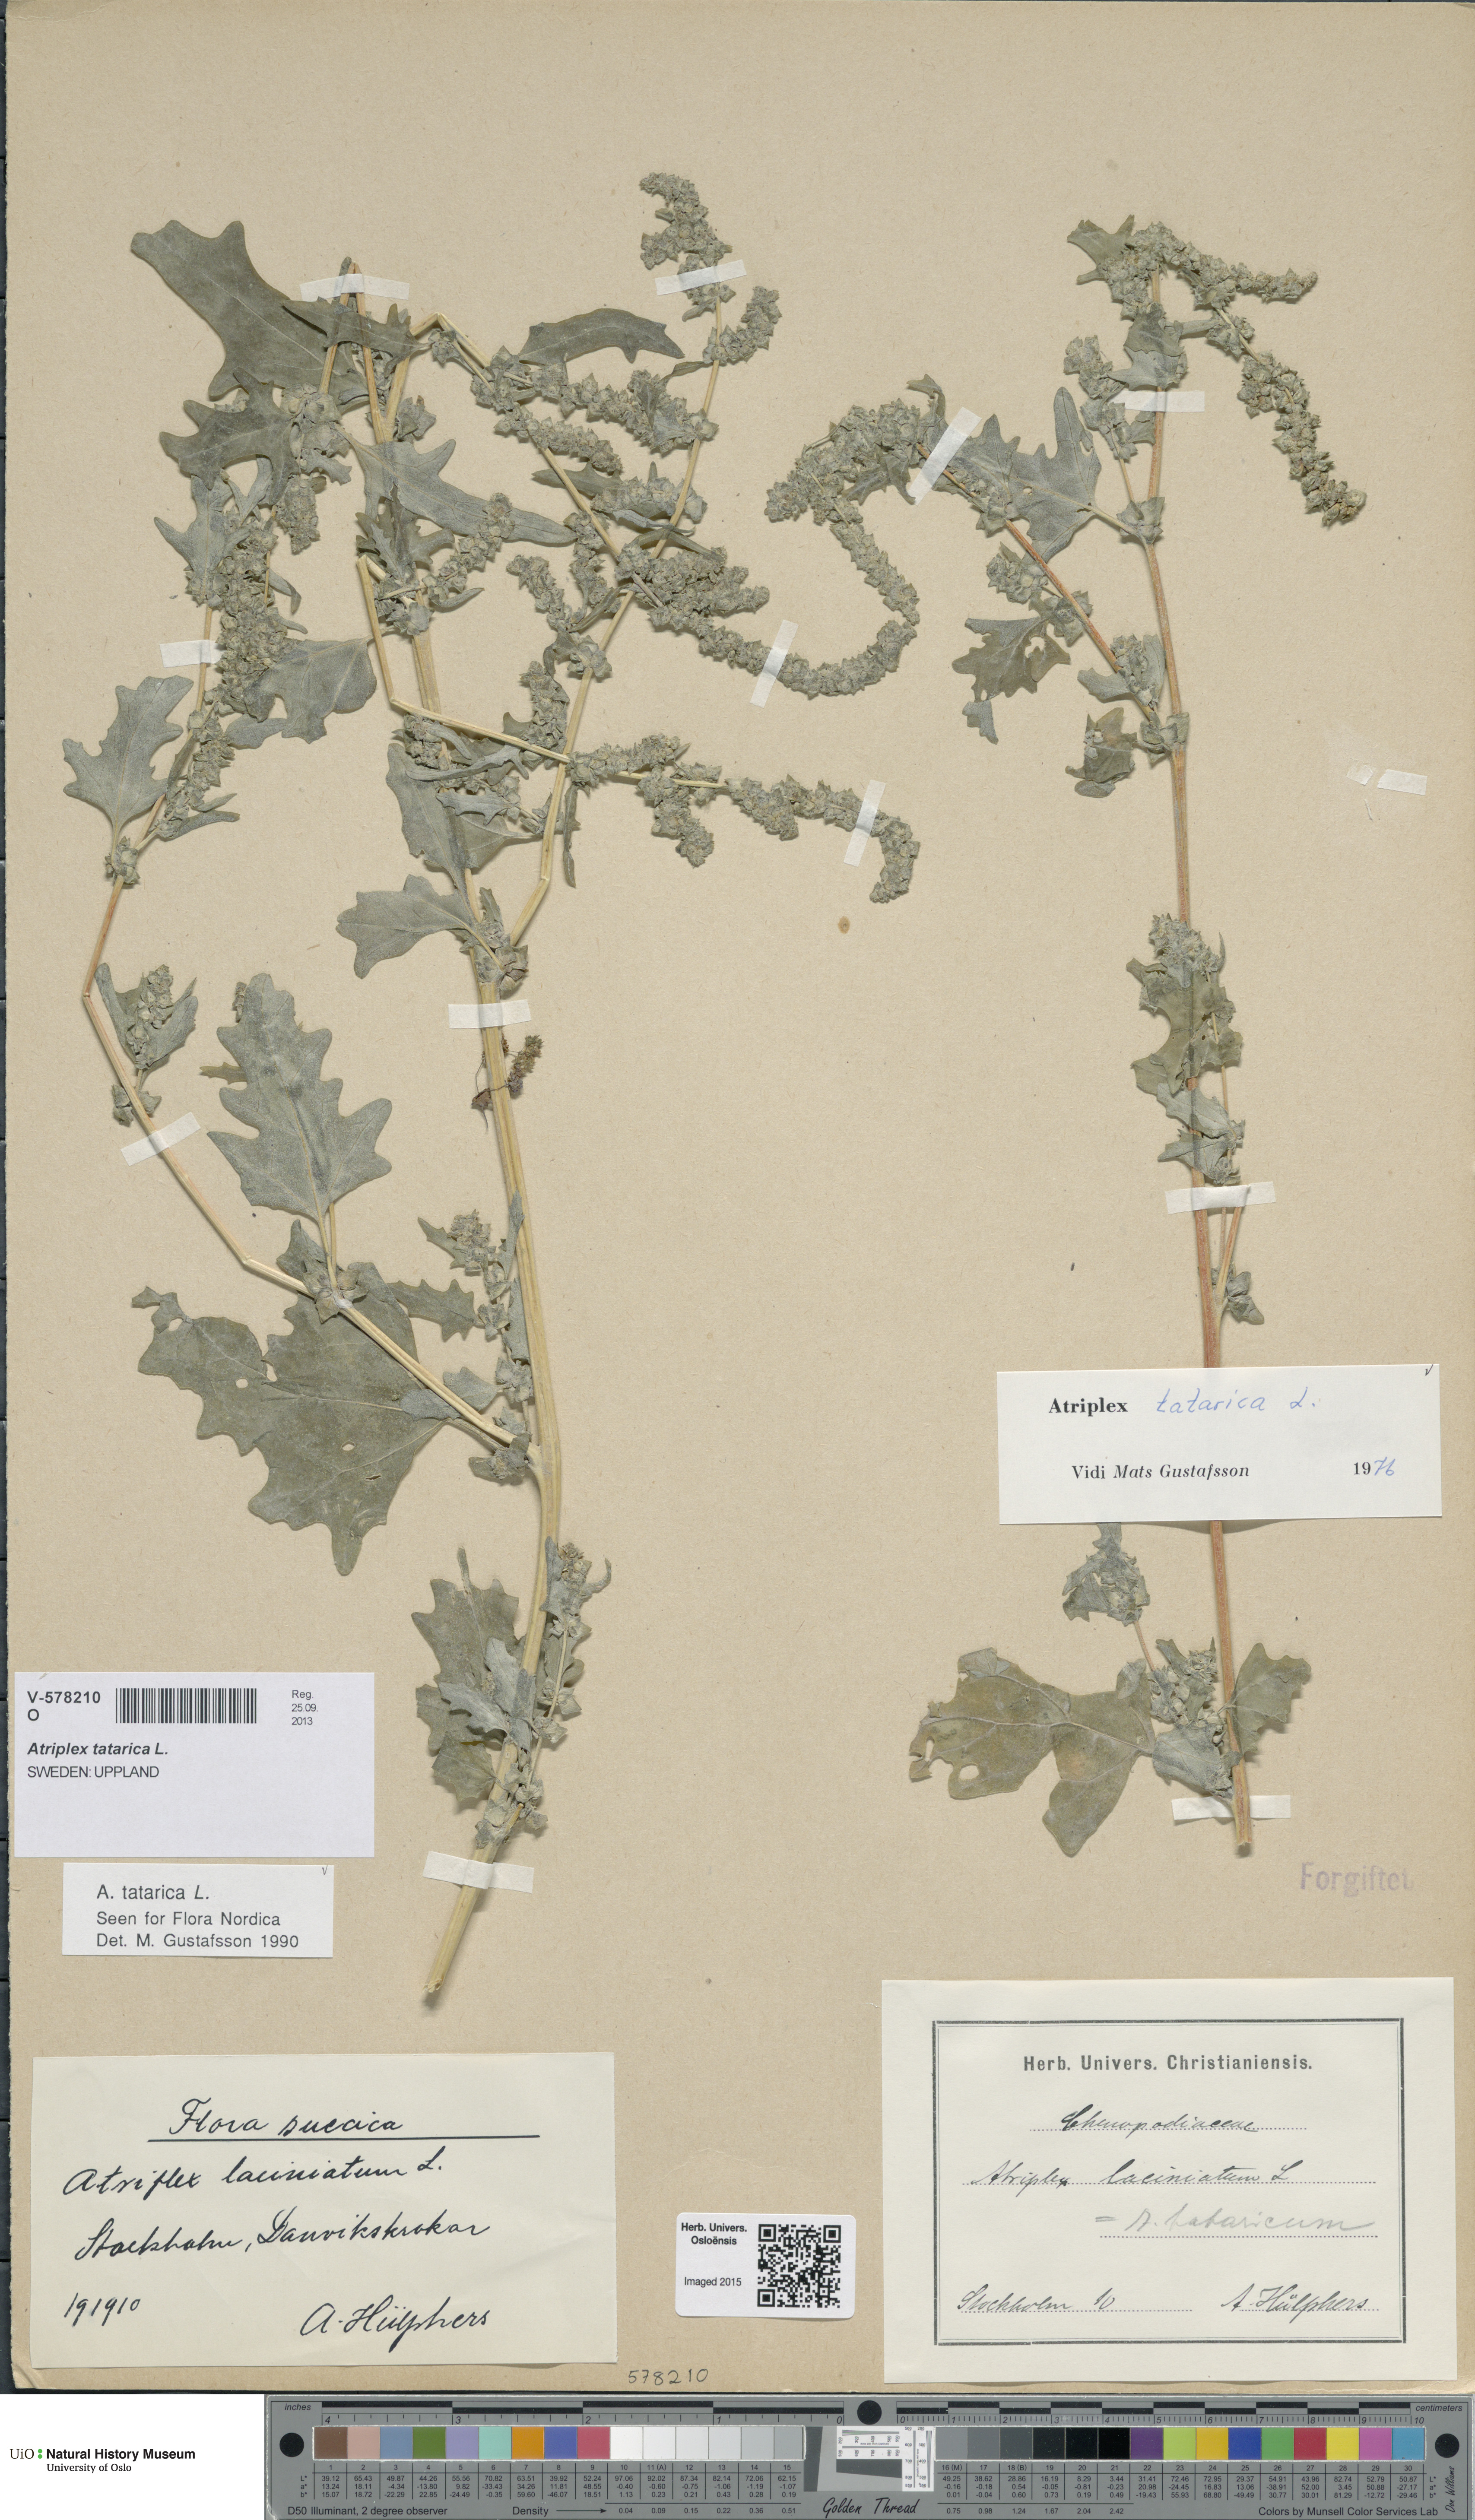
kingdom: Plantae
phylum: Tracheophyta
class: Magnoliopsida
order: Caryophyllales
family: Amaranthaceae
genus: Atriplex
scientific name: Atriplex tatarica
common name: Tatarian orache
